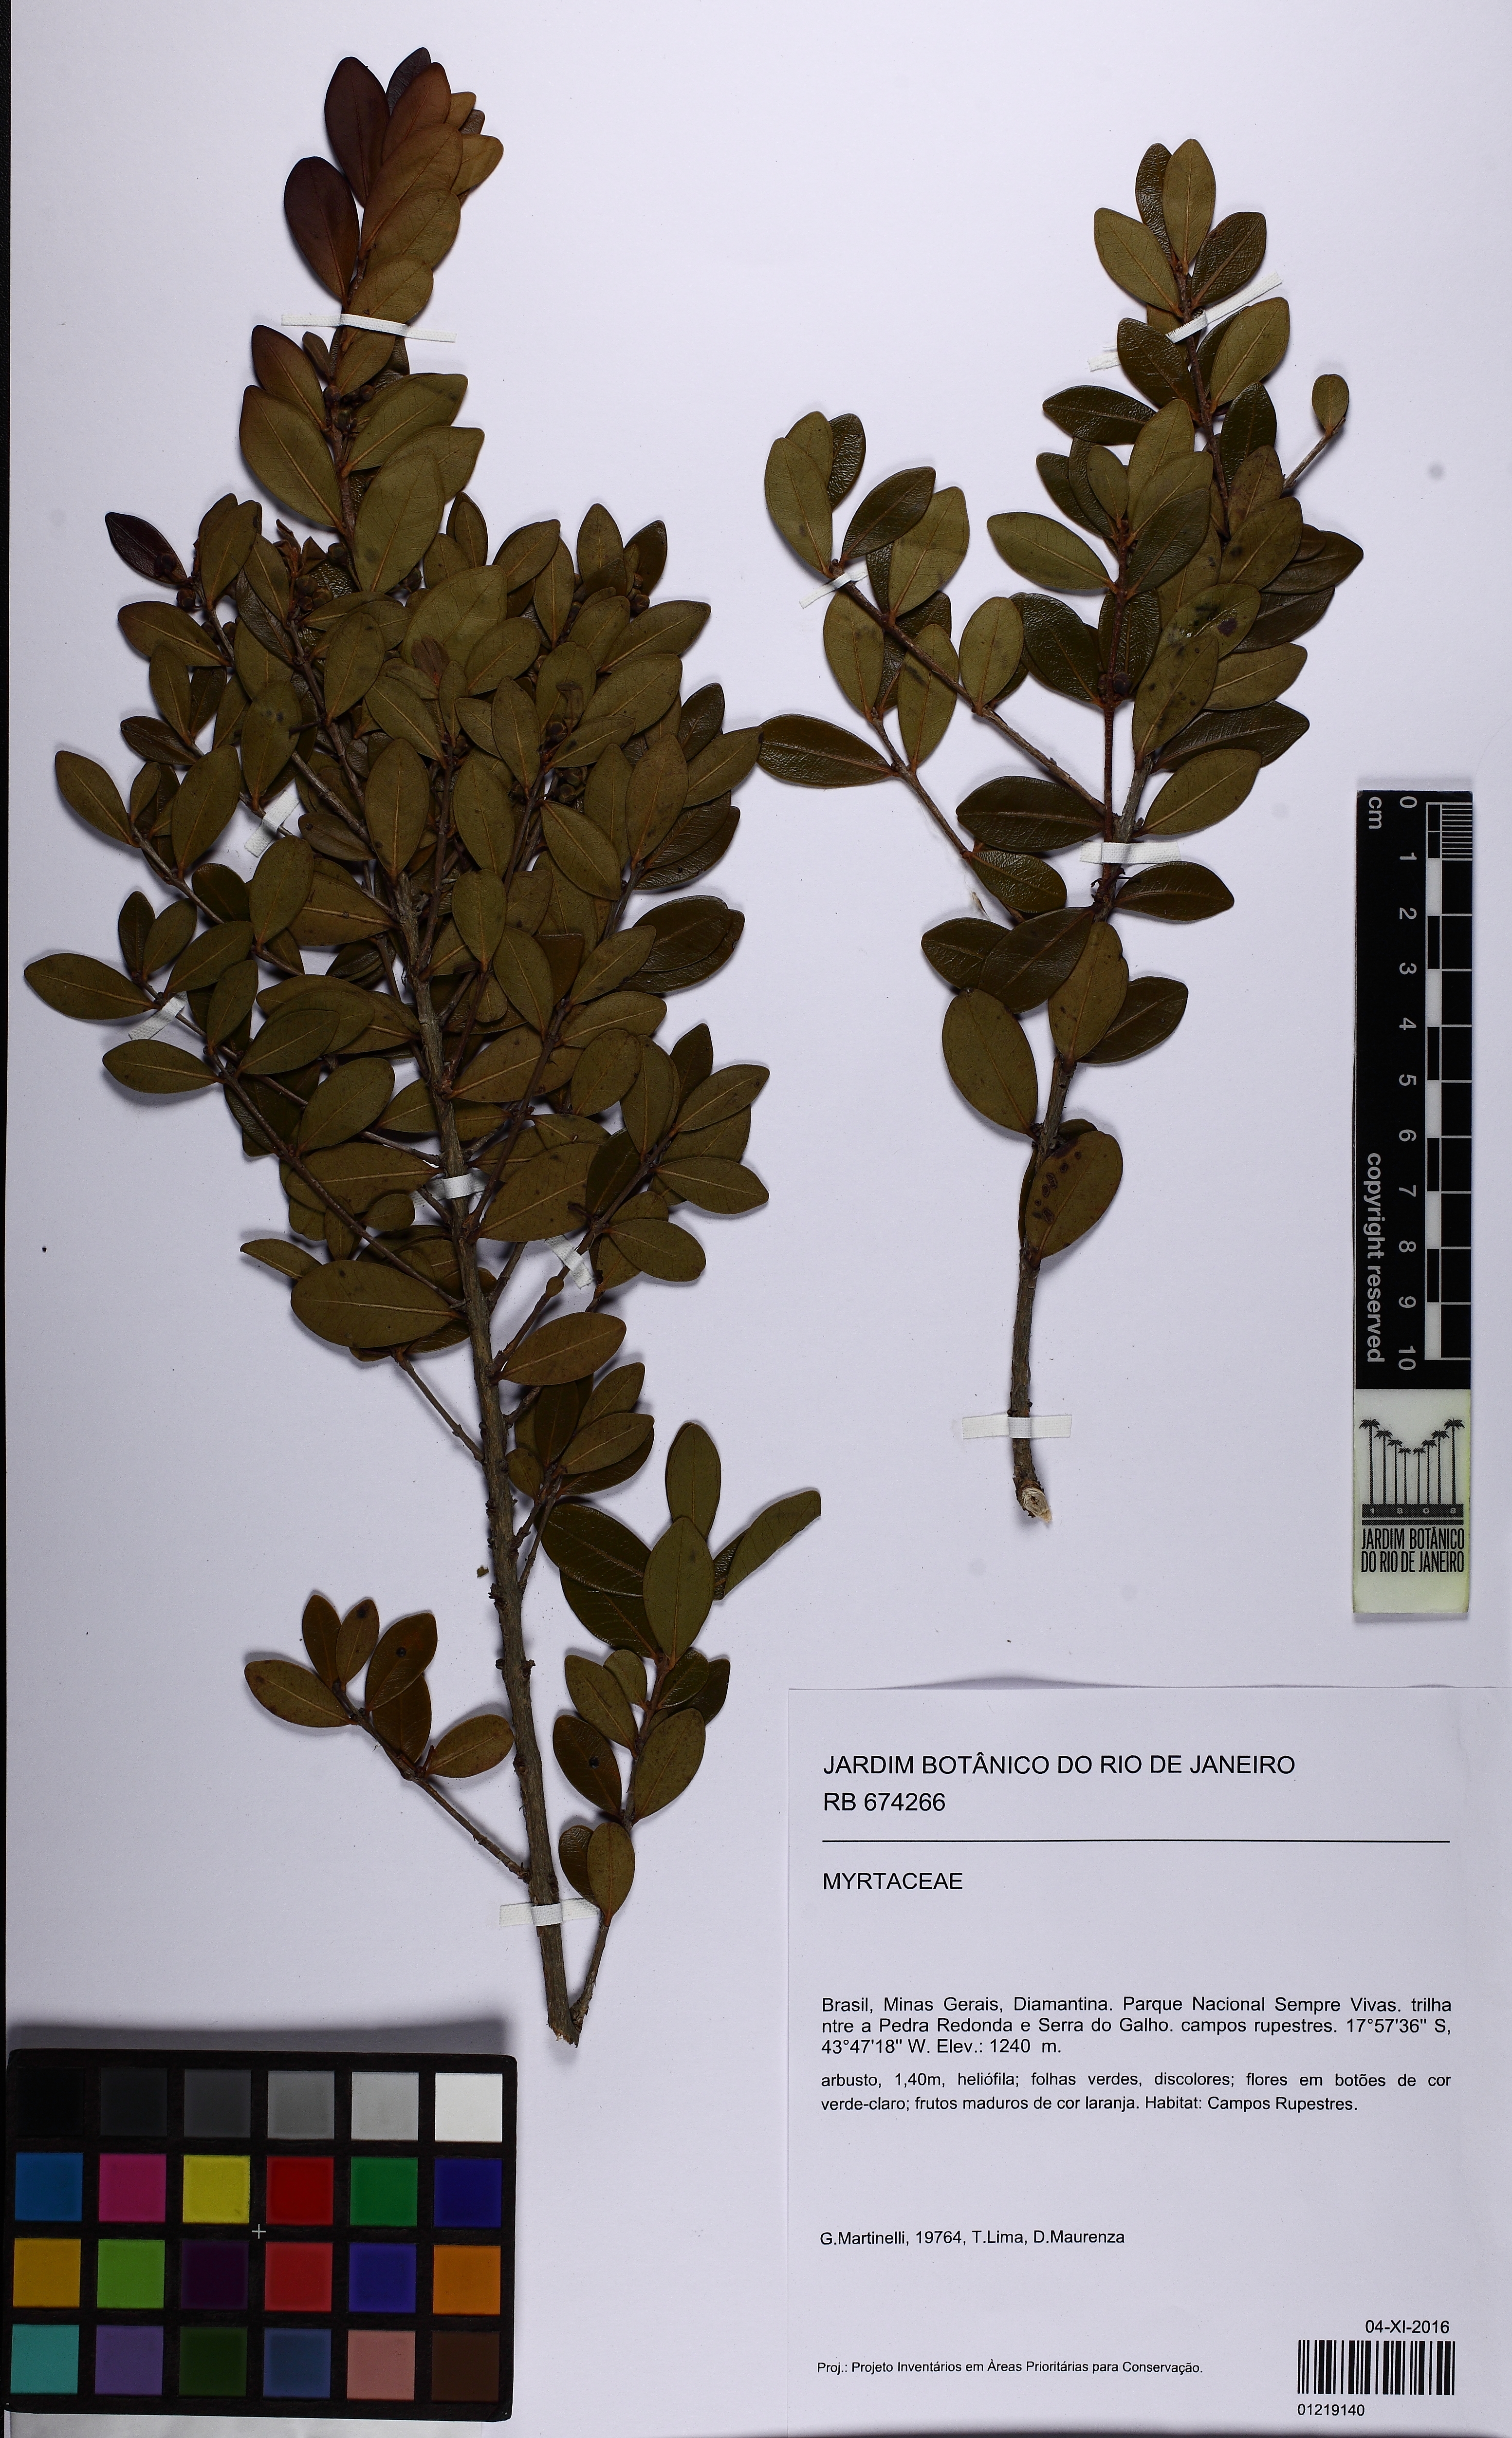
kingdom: Plantae
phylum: Tracheophyta
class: Magnoliopsida
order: Myrtales
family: Myrtaceae
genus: Eugenia
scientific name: Eugenia punicifolia
